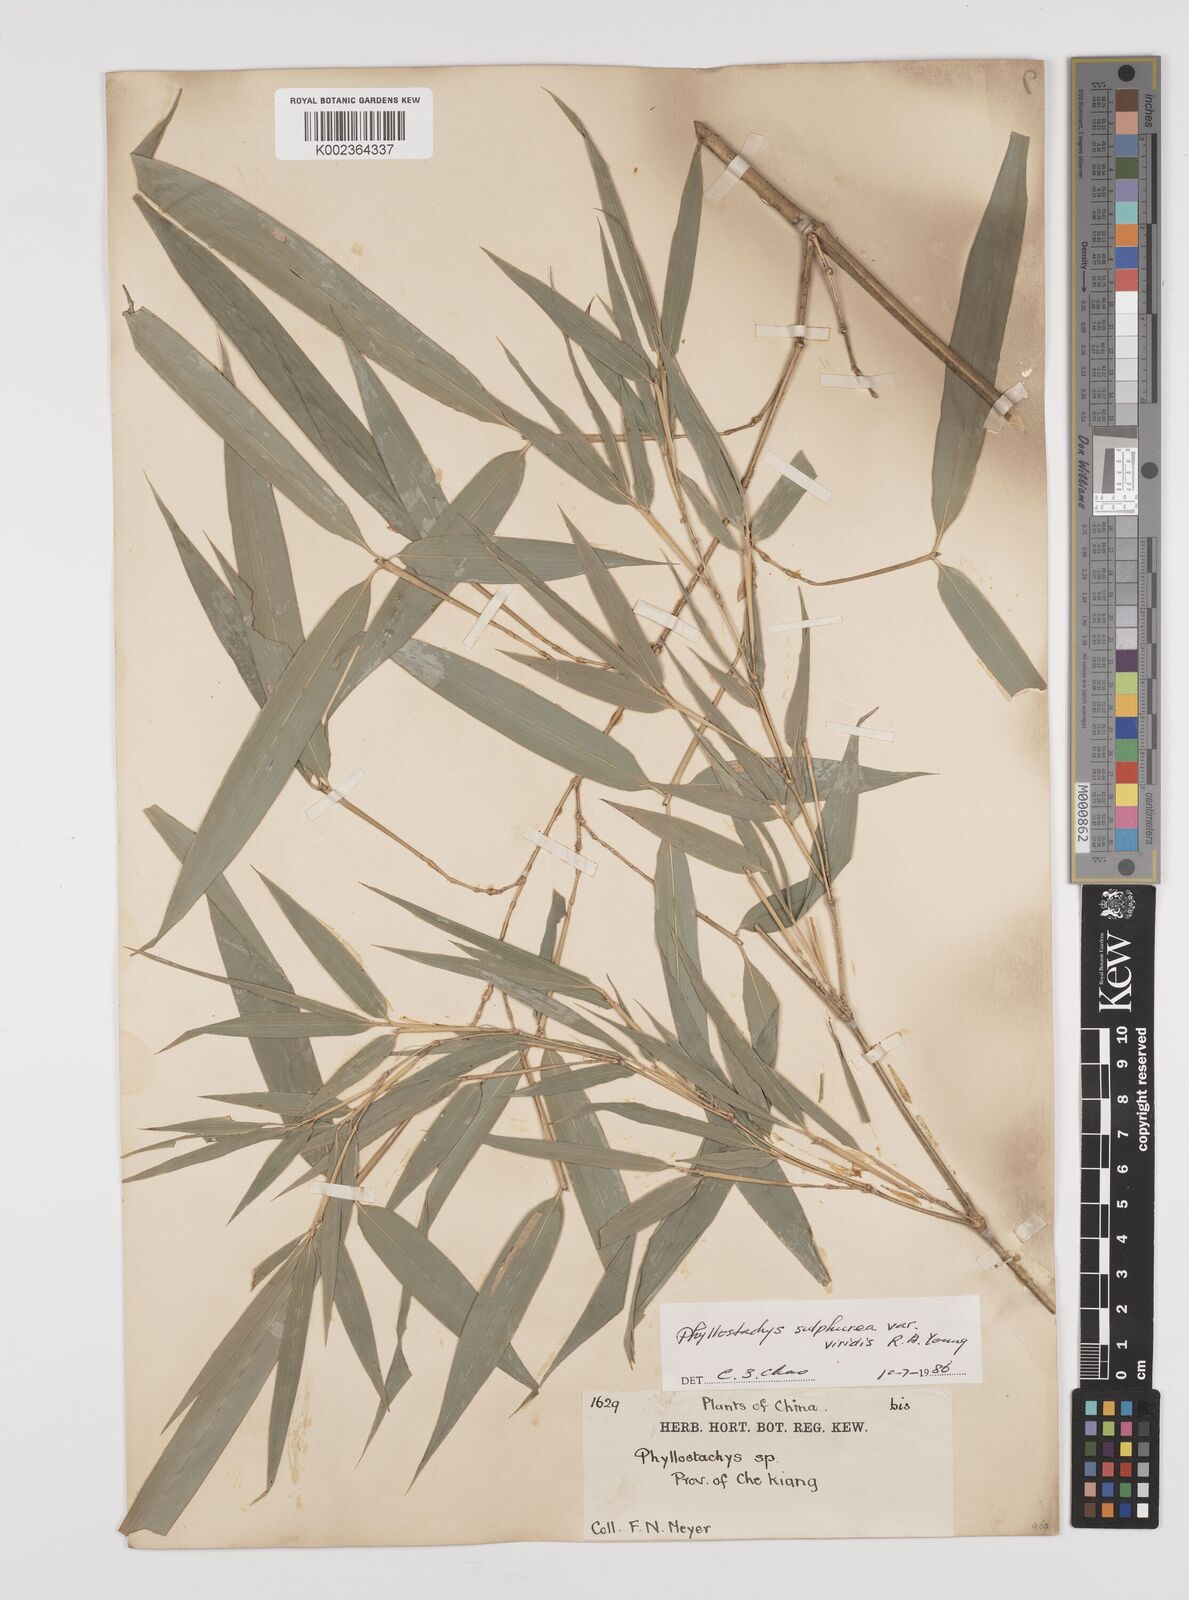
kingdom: Plantae
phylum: Tracheophyta
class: Liliopsida
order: Poales
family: Poaceae
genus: Phyllostachys
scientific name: Phyllostachys sulphurea
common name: Sulphur bamboo
